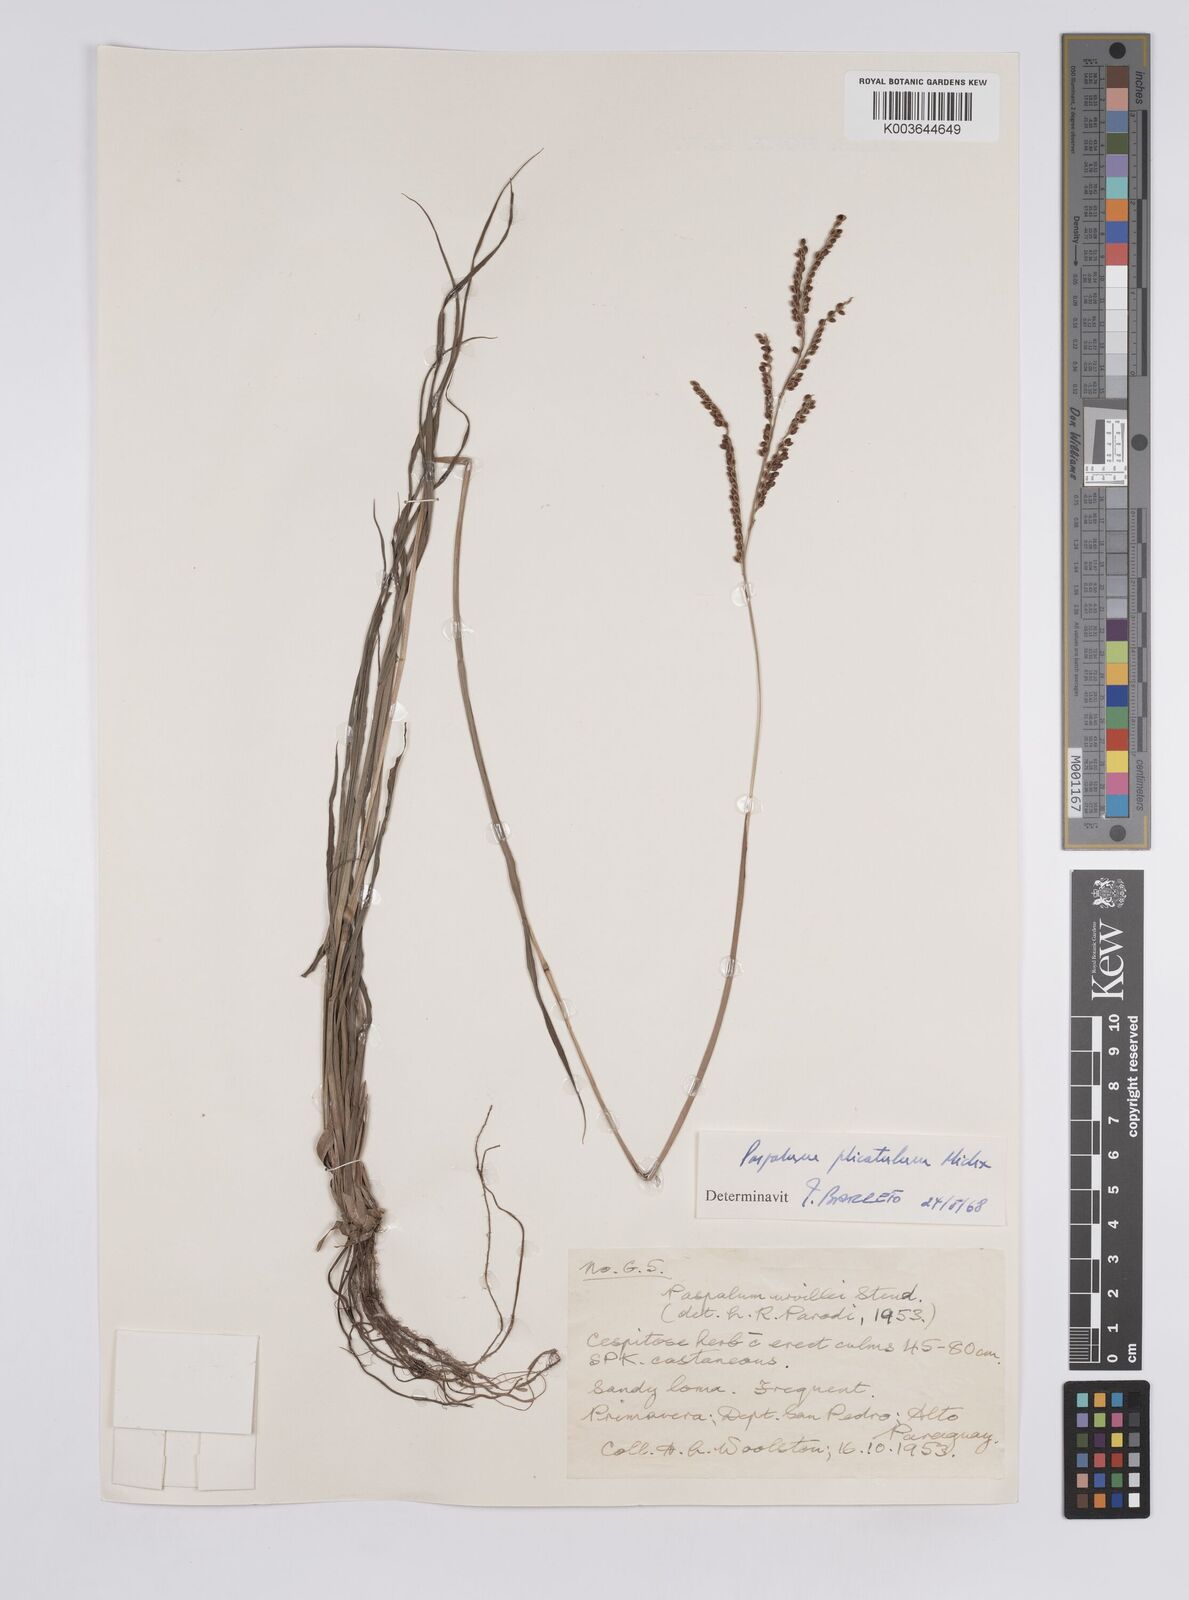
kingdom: Plantae
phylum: Tracheophyta
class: Liliopsida
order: Poales
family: Poaceae
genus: Paspalum
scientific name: Paspalum plicatulum
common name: Top paspalum
